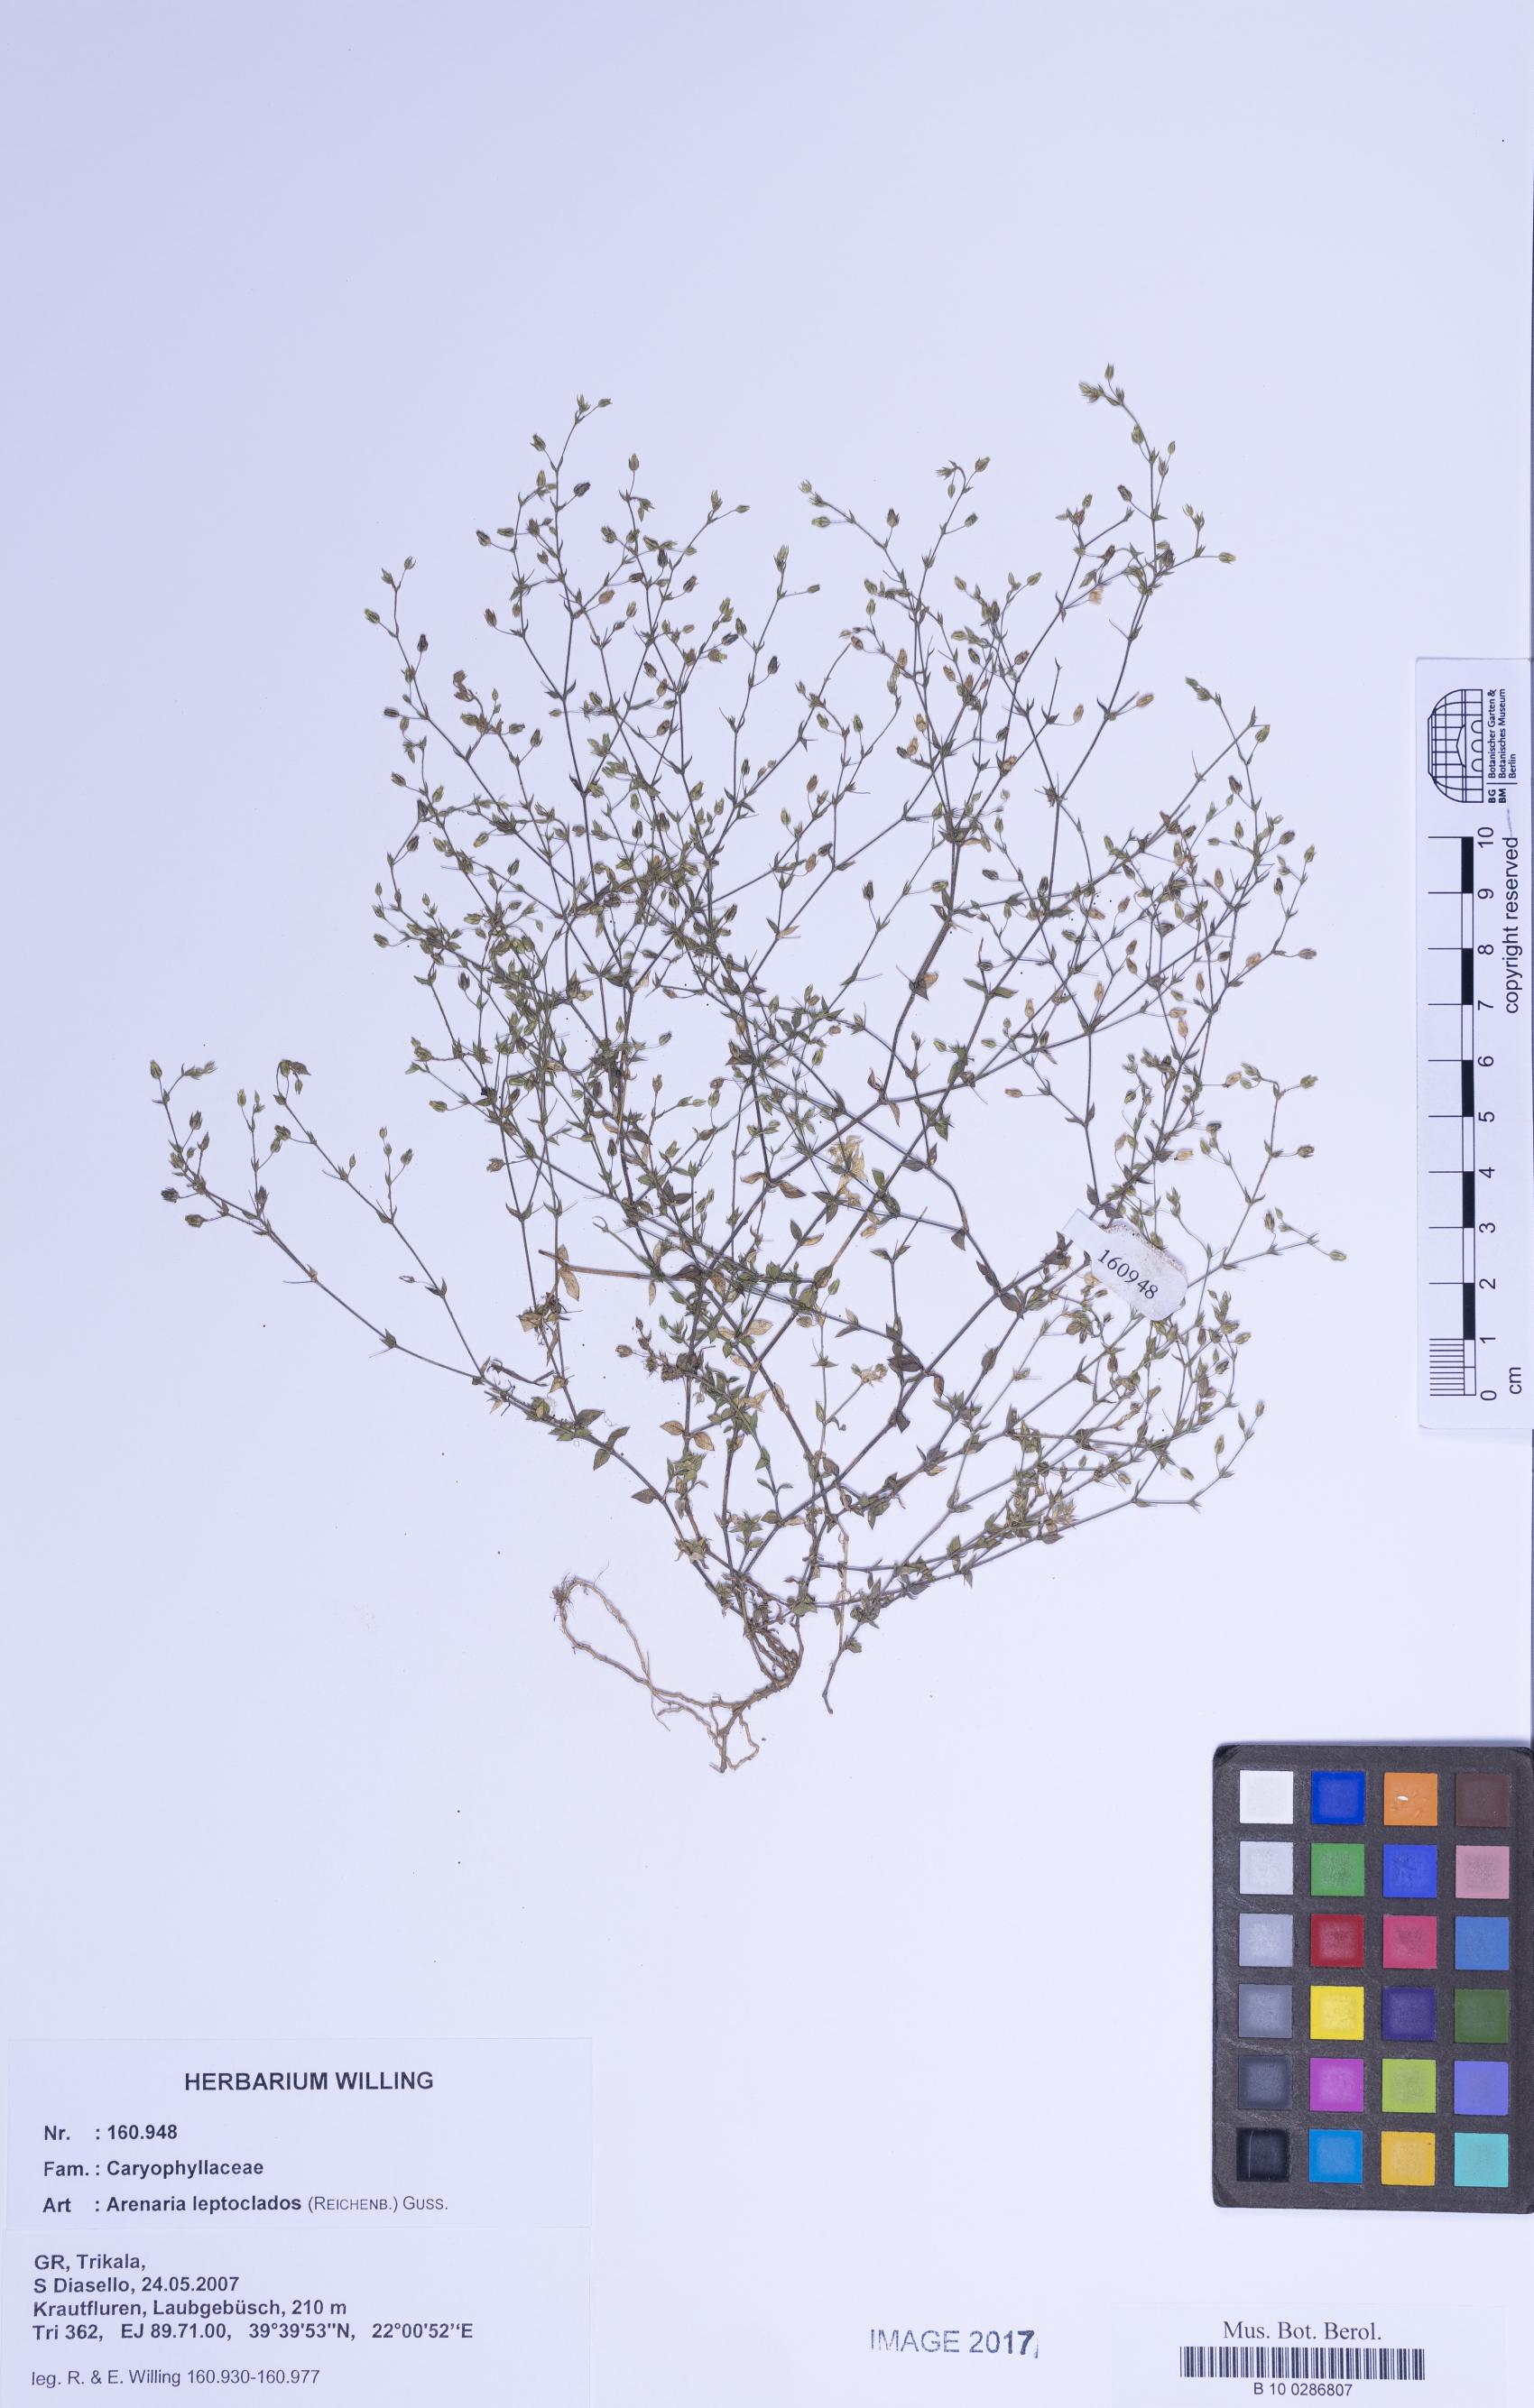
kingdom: Plantae
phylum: Tracheophyta
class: Magnoliopsida
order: Caryophyllales
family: Caryophyllaceae
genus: Arenaria
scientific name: Arenaria leptoclados
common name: Thyme-leaved sandwort
